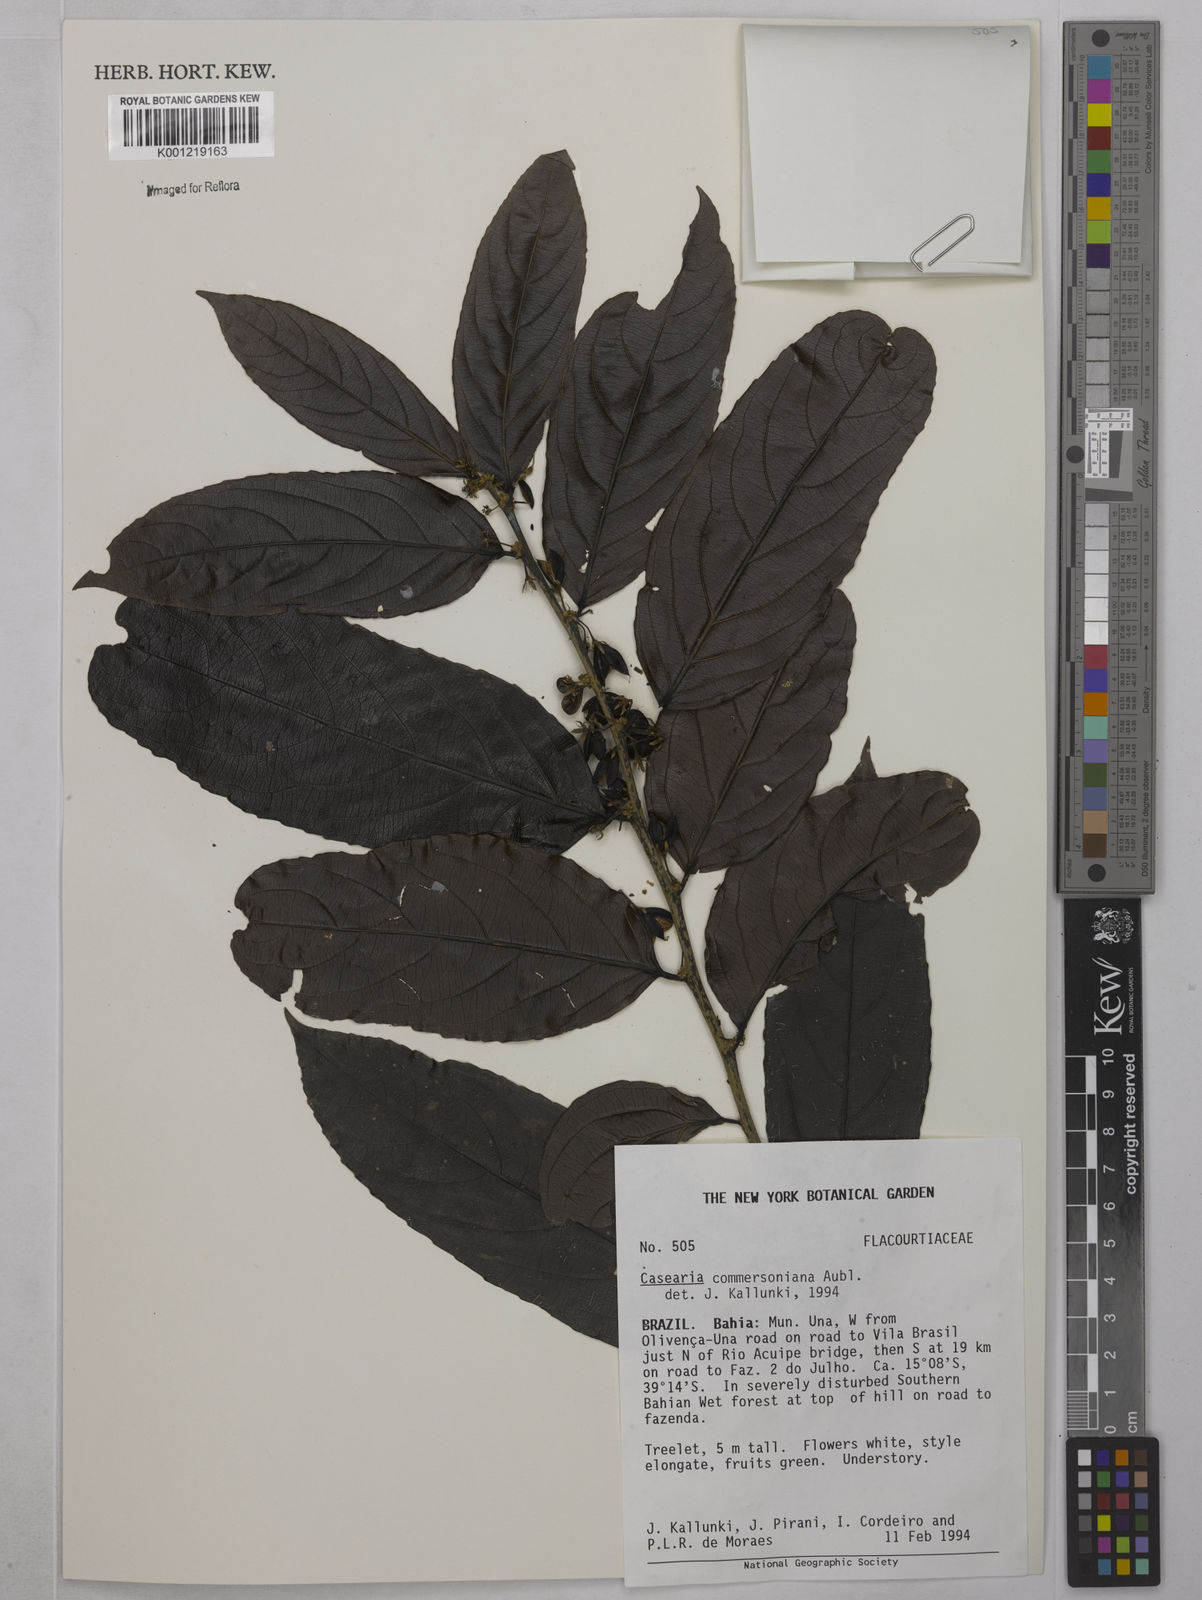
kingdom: Plantae
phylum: Tracheophyta
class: Magnoliopsida
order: Malpighiales
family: Salicaceae
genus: Piparea
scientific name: Piparea dentata
